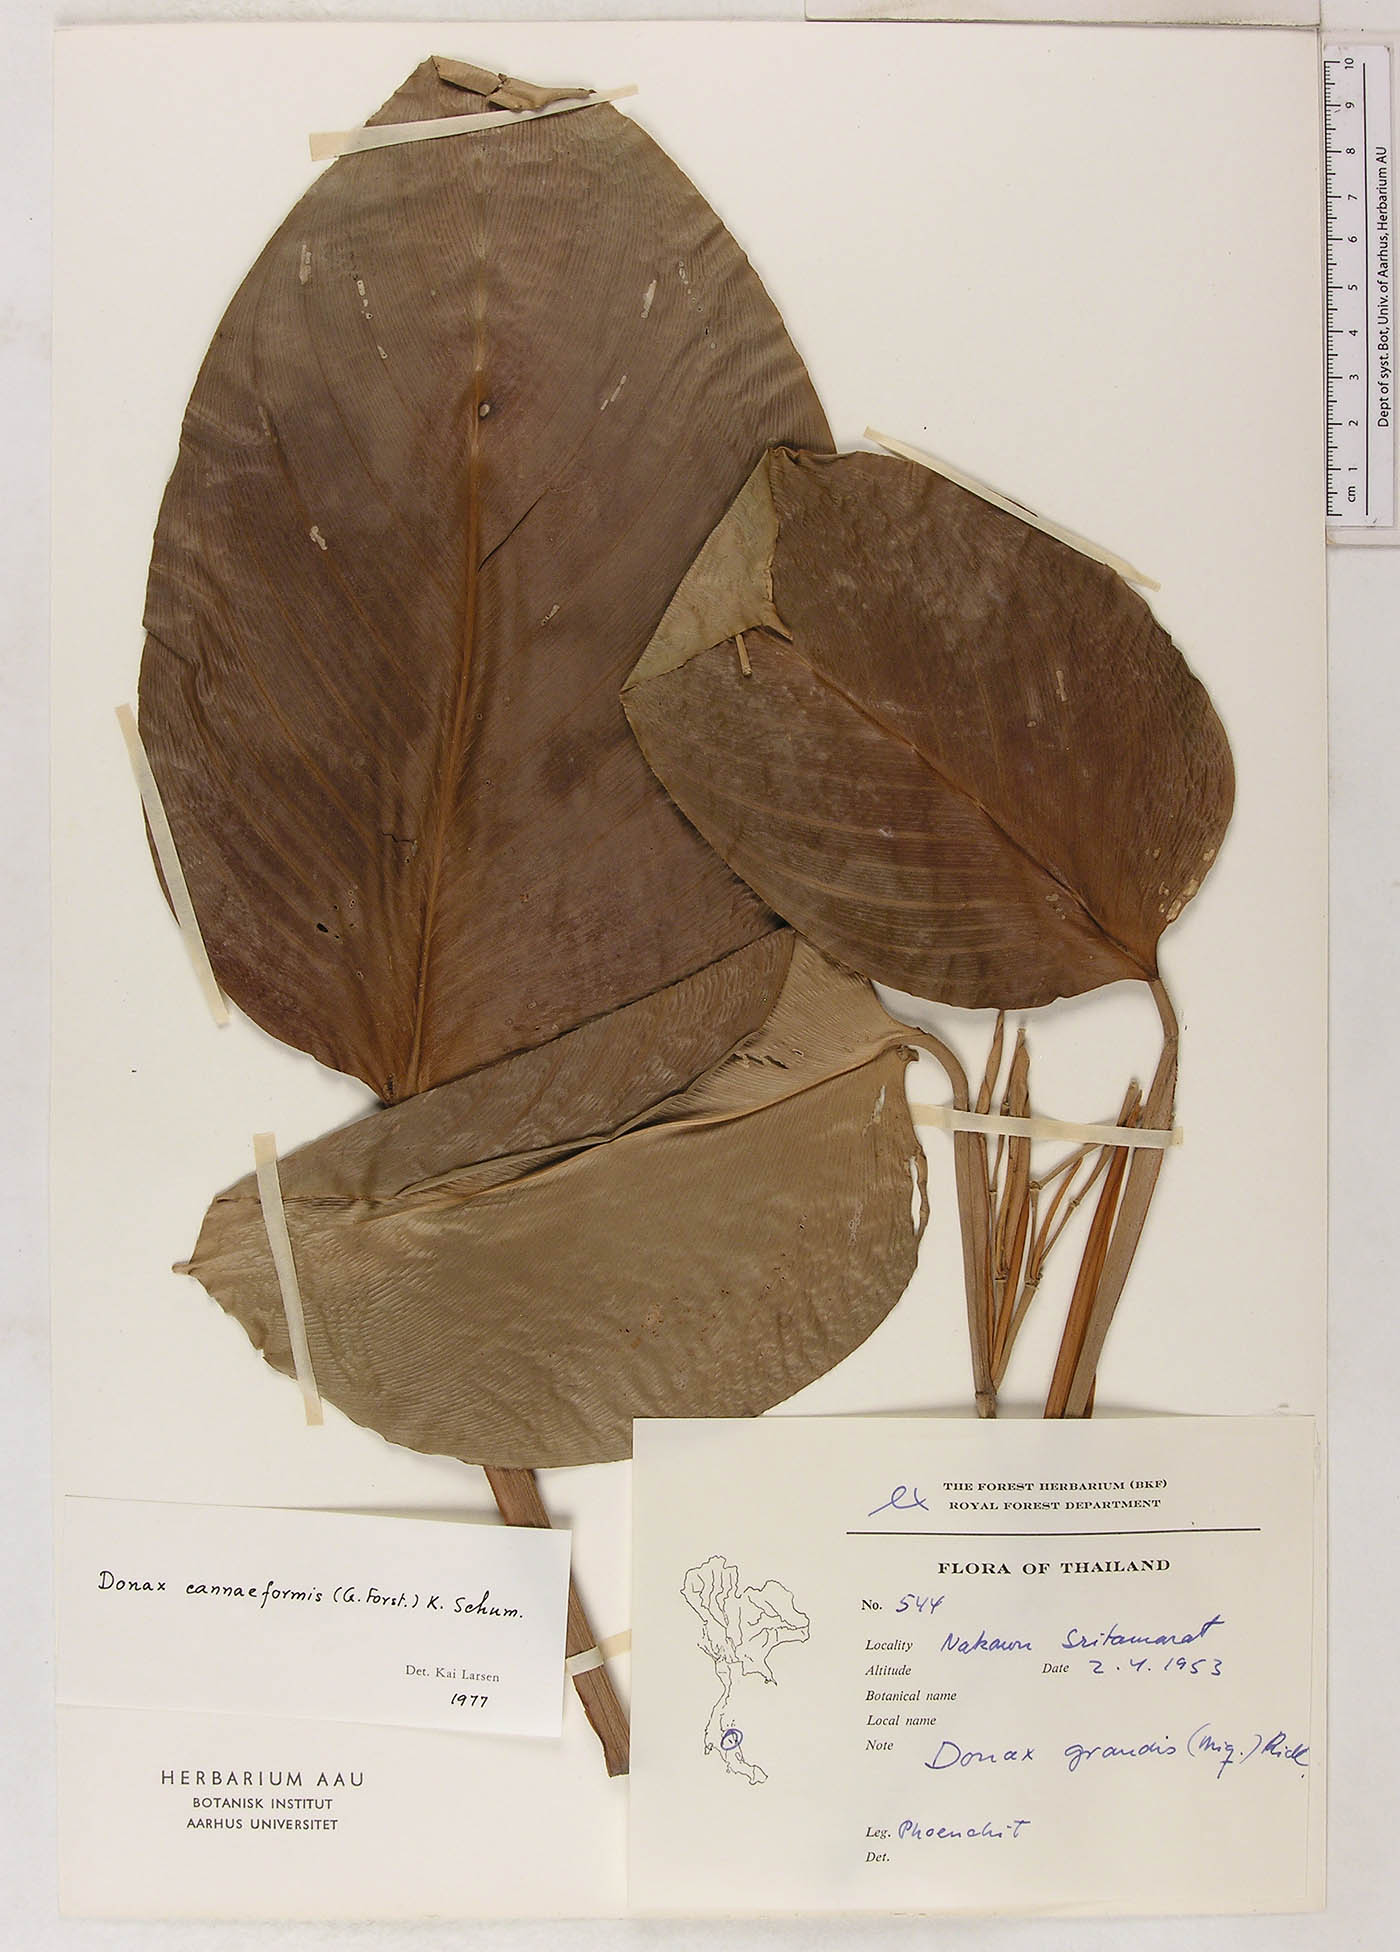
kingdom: Plantae
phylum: Tracheophyta
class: Liliopsida
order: Zingiberales
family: Marantaceae
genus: Donax
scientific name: Donax canniformis
